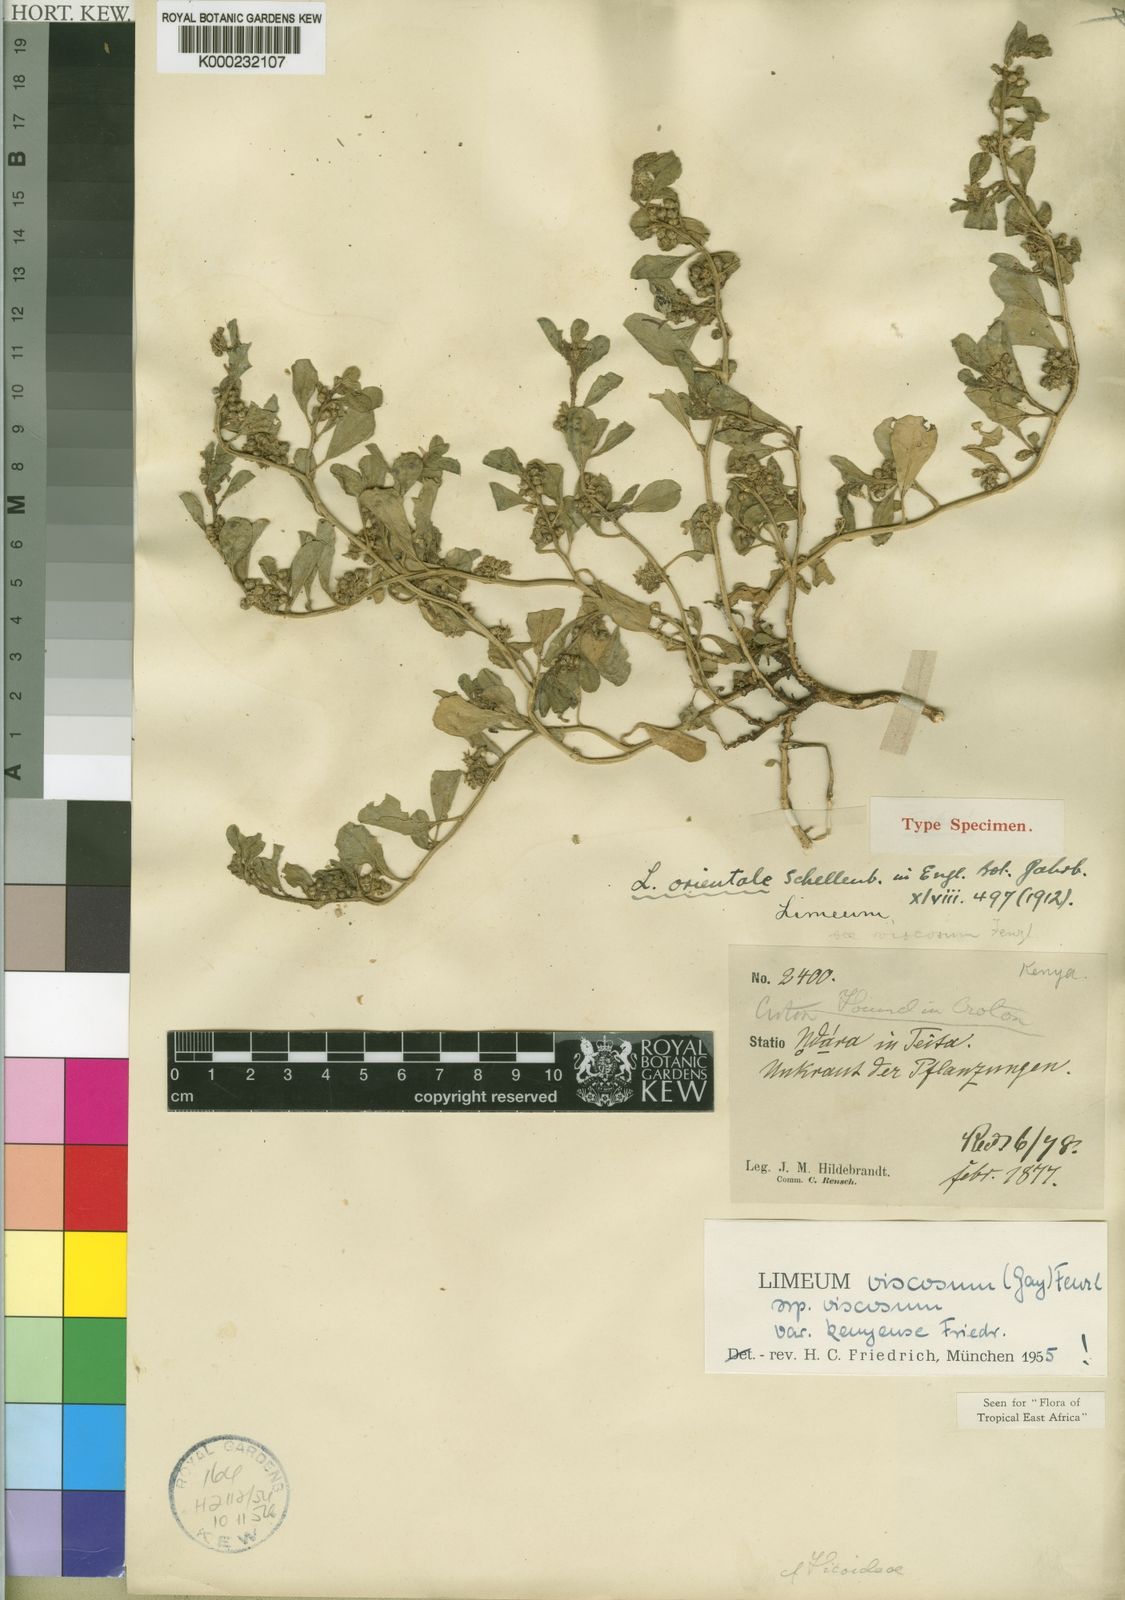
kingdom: Plantae
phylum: Tracheophyta
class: Magnoliopsida
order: Caryophyllales
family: Limeaceae
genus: Limeum
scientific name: Limeum viscosum
